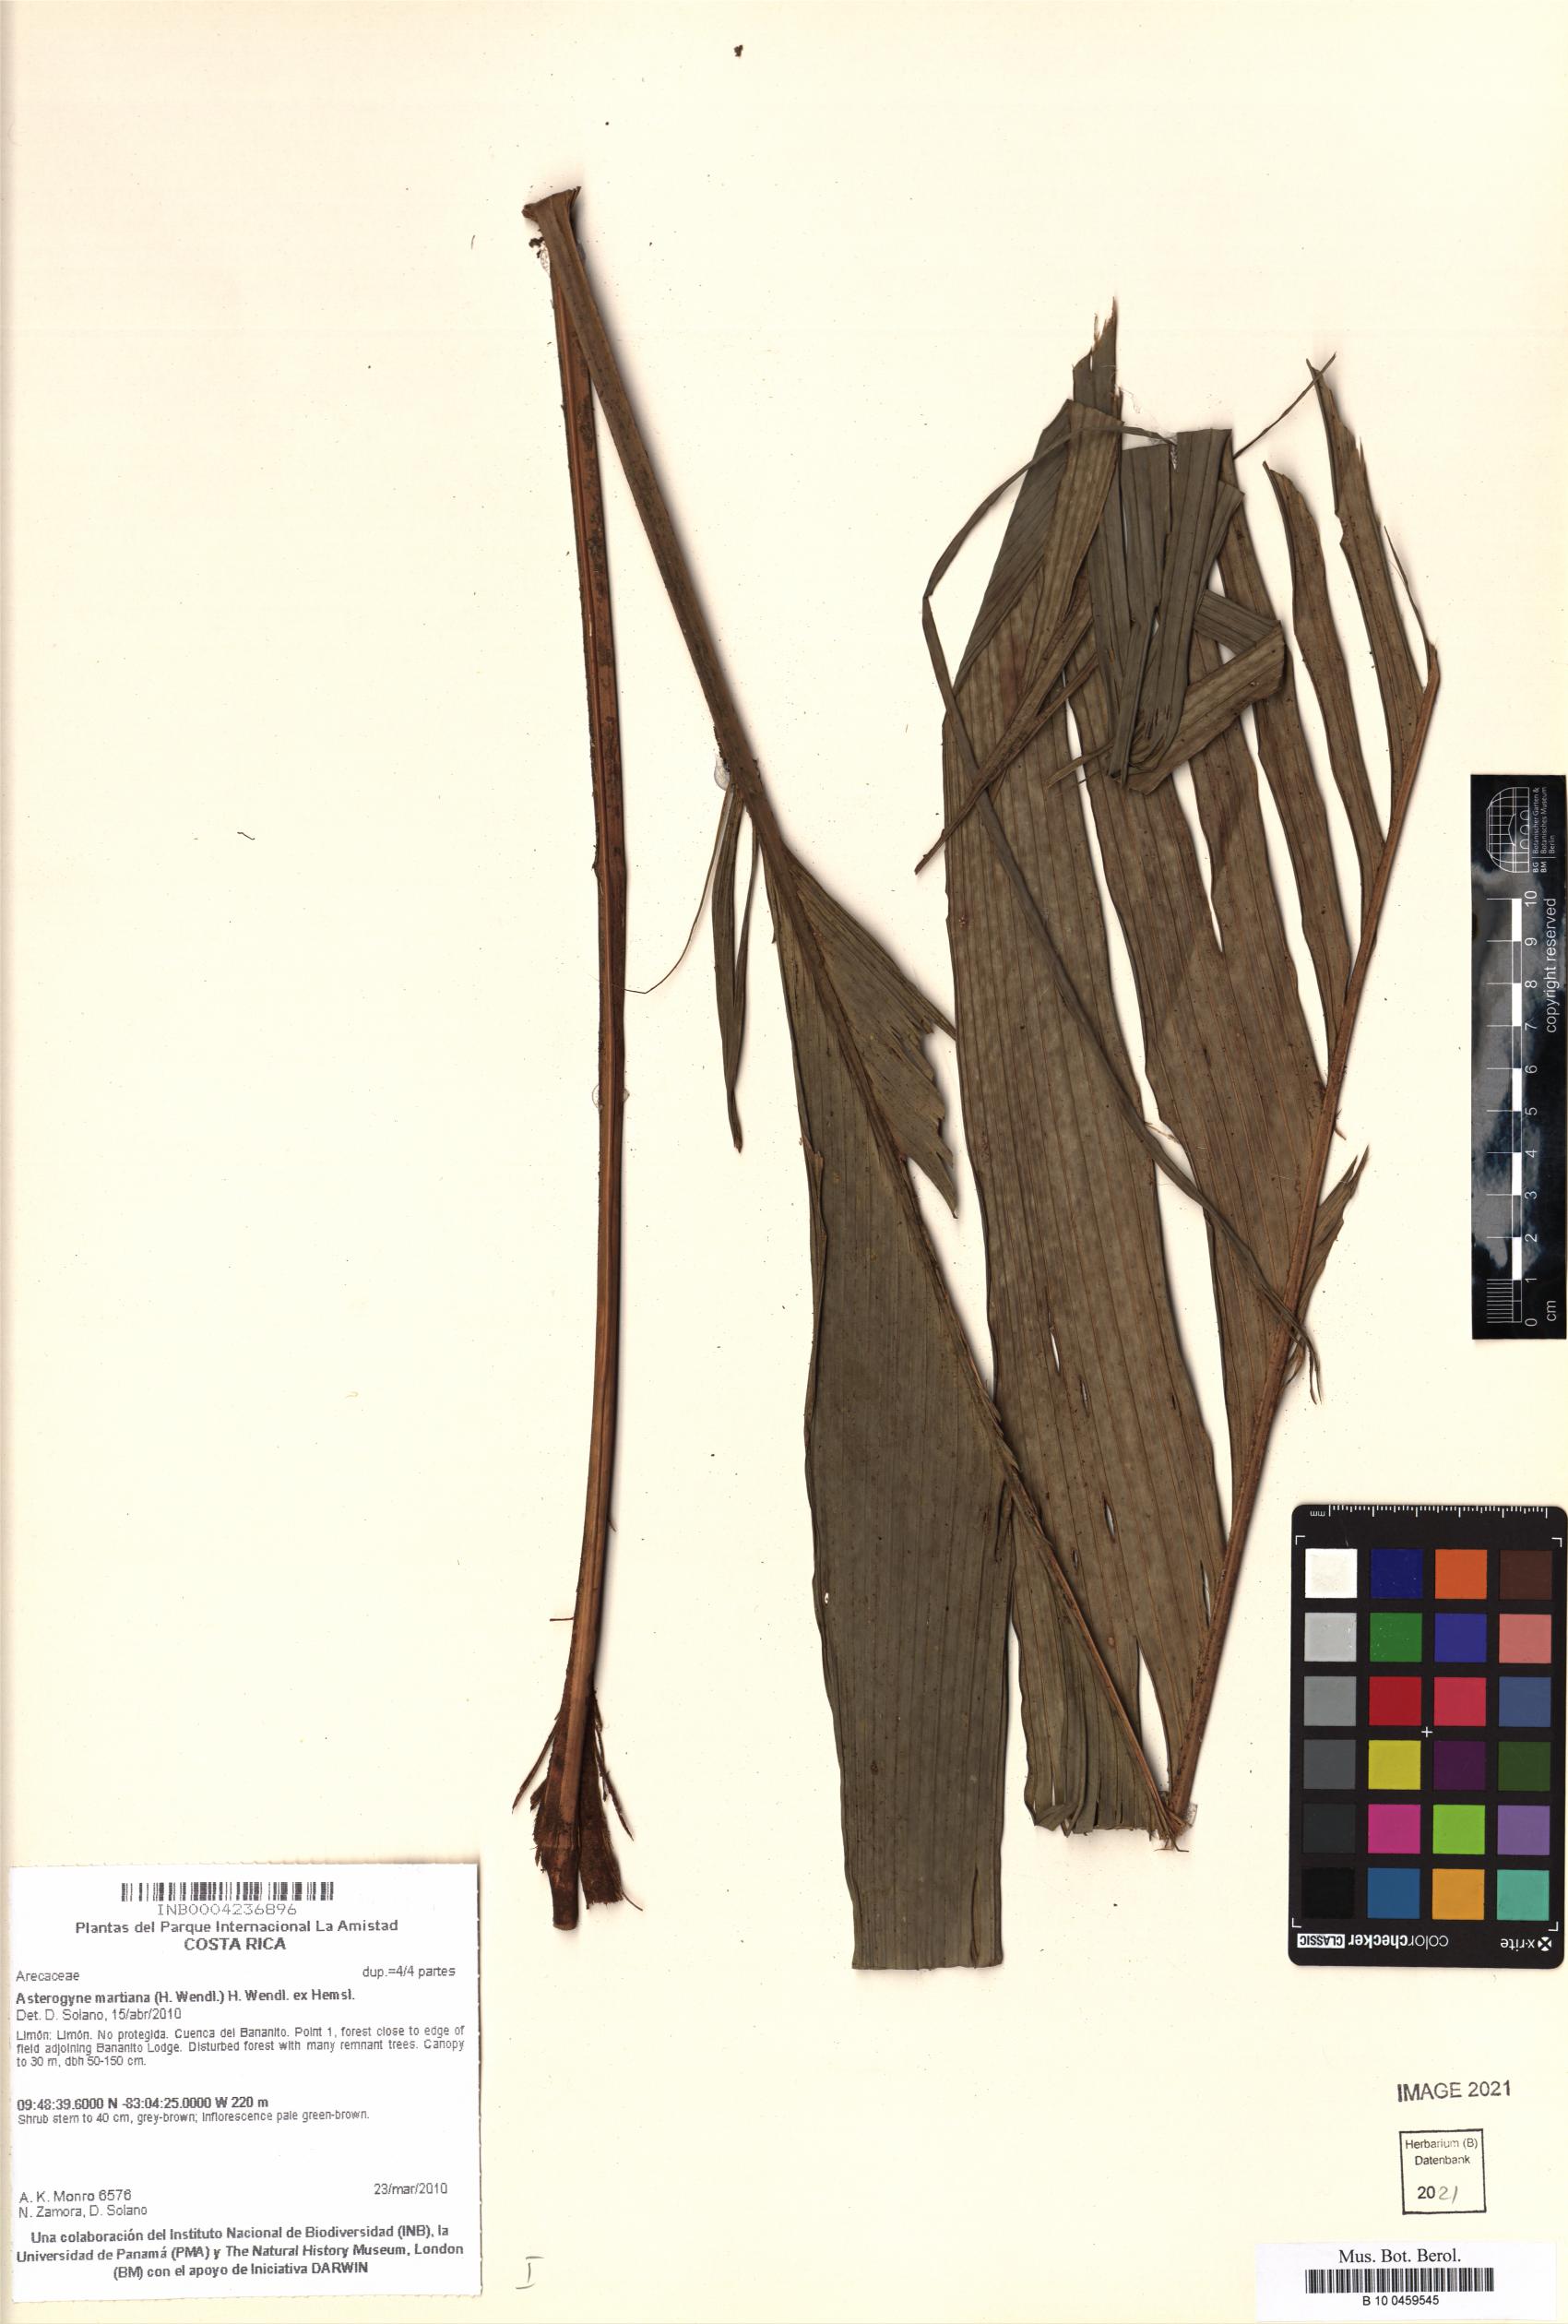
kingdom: Plantae
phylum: Tracheophyta
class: Liliopsida
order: Arecales
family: Arecaceae
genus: Asterogyne
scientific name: Asterogyne martiana
